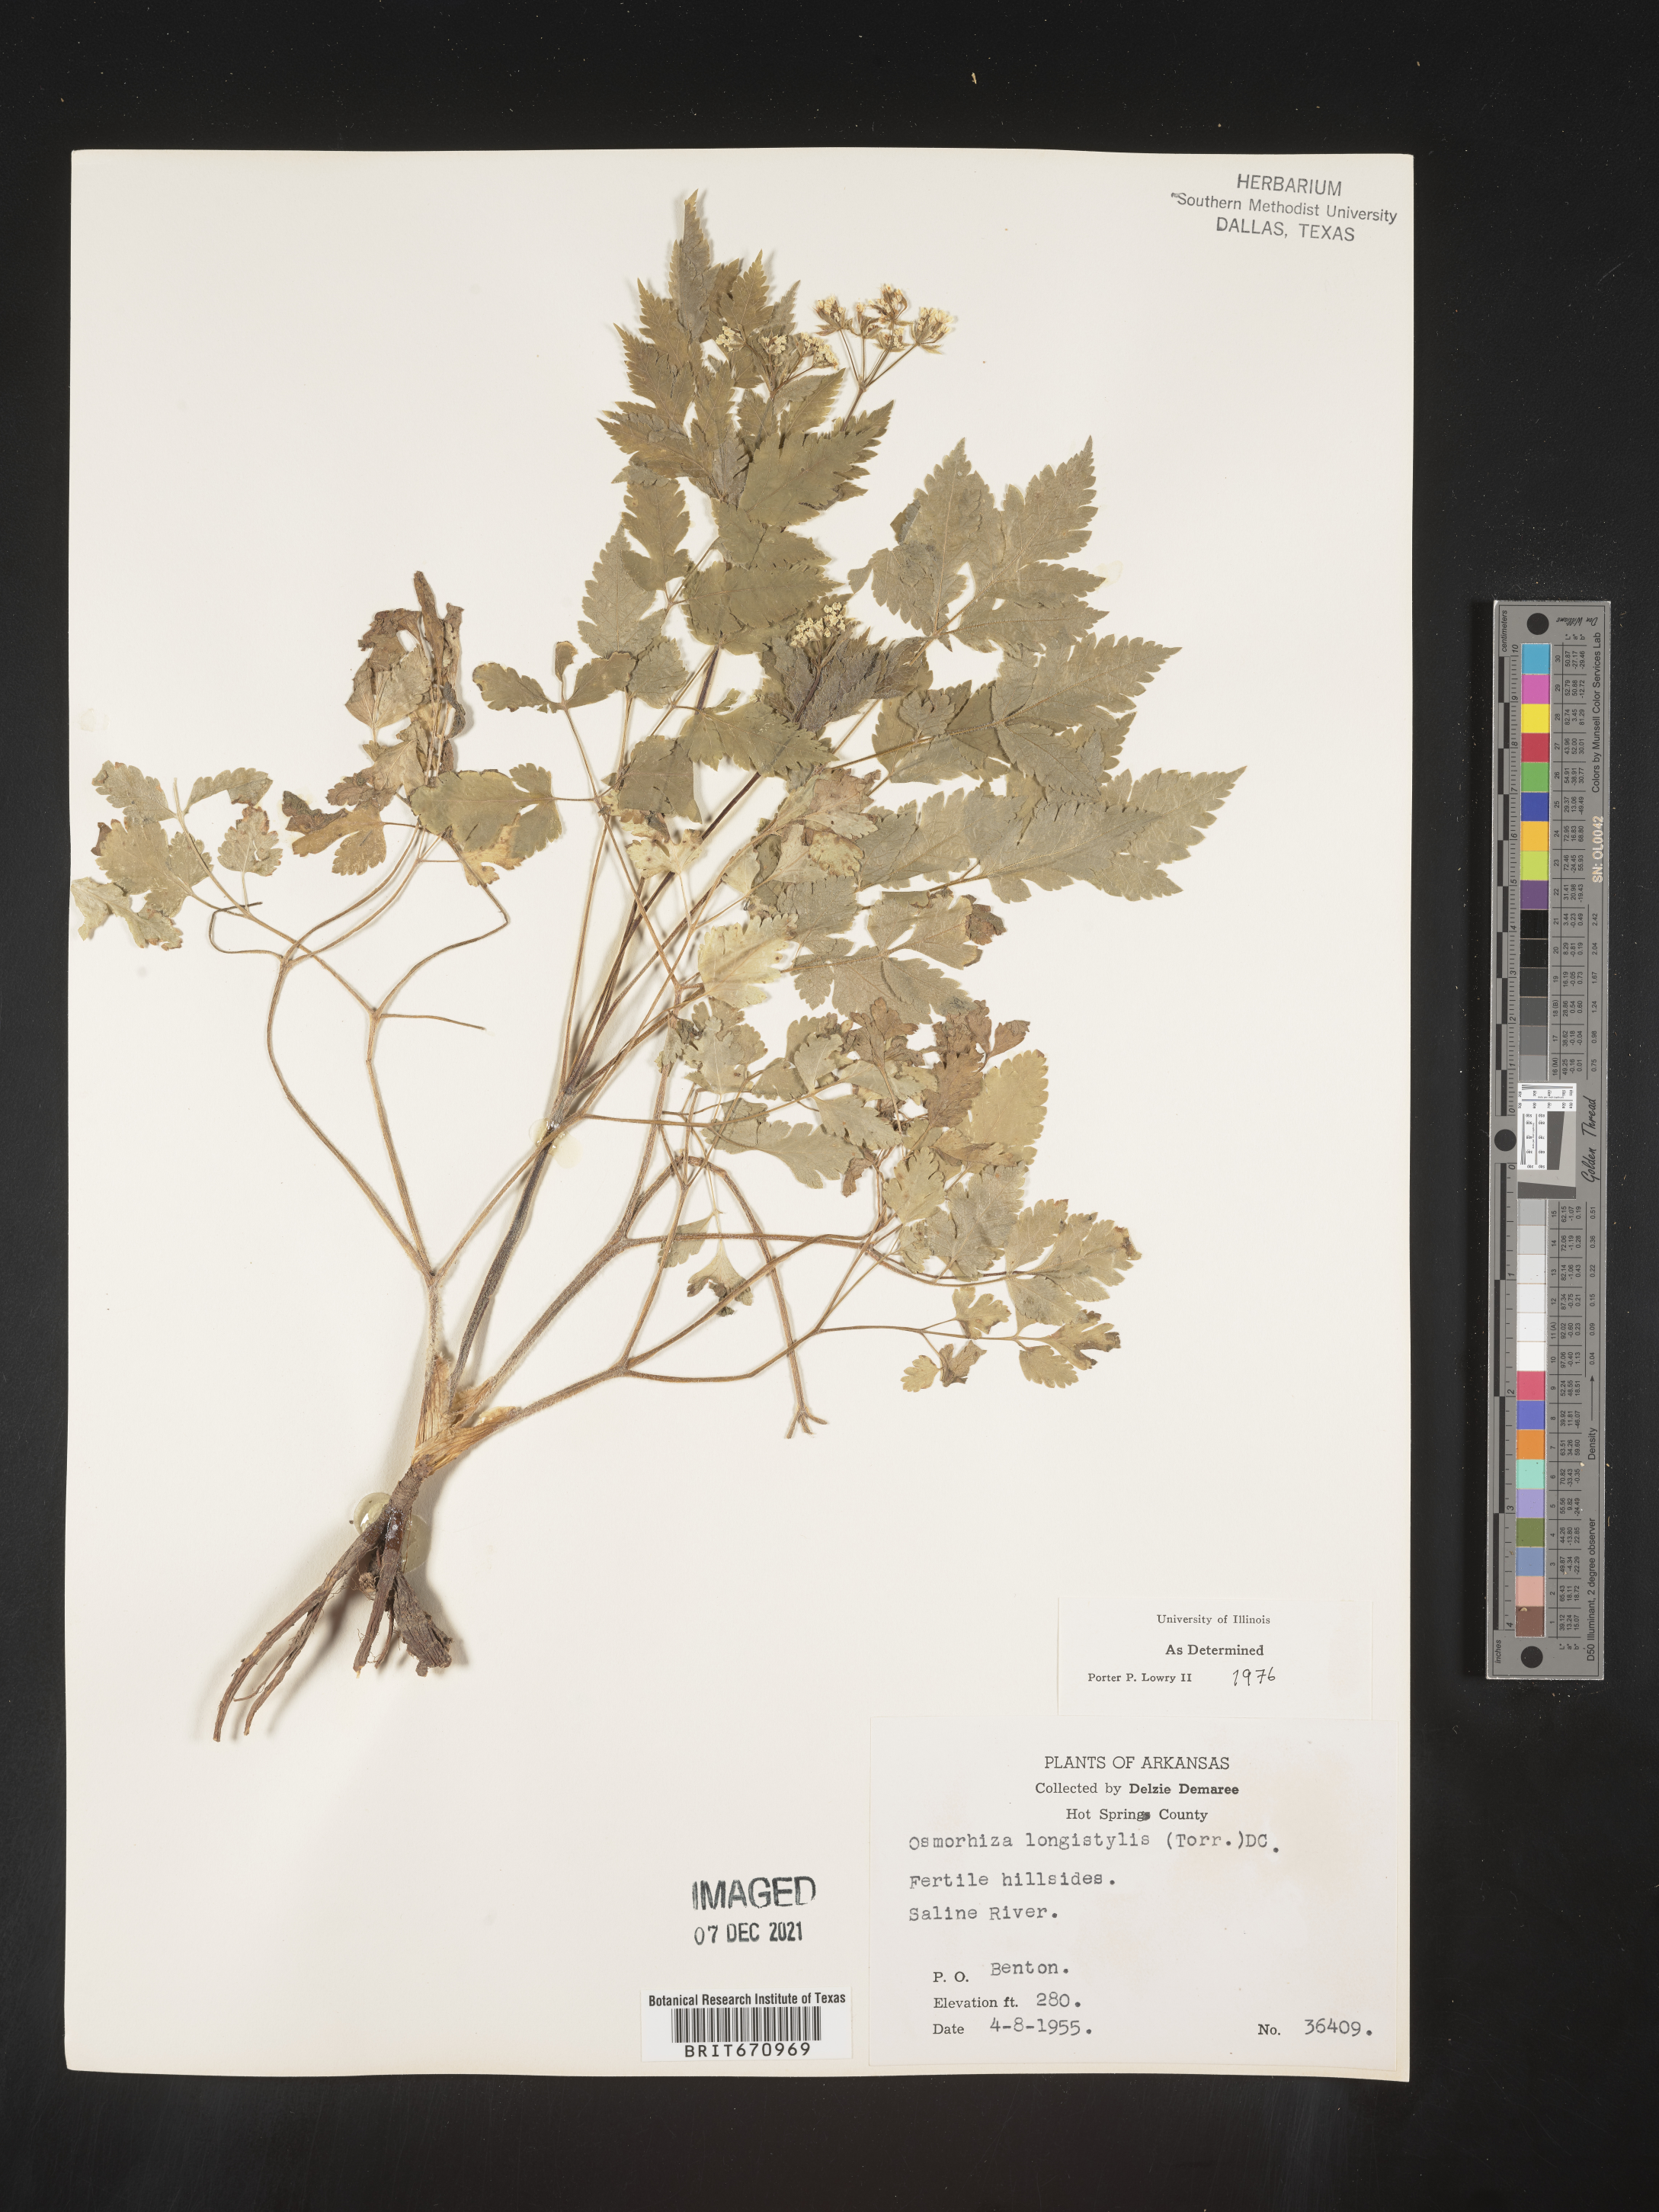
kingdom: Plantae
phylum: Tracheophyta
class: Magnoliopsida
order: Apiales
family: Apiaceae
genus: Osmorhiza
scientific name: Osmorhiza longistylis
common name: Smooth sweet cicely
